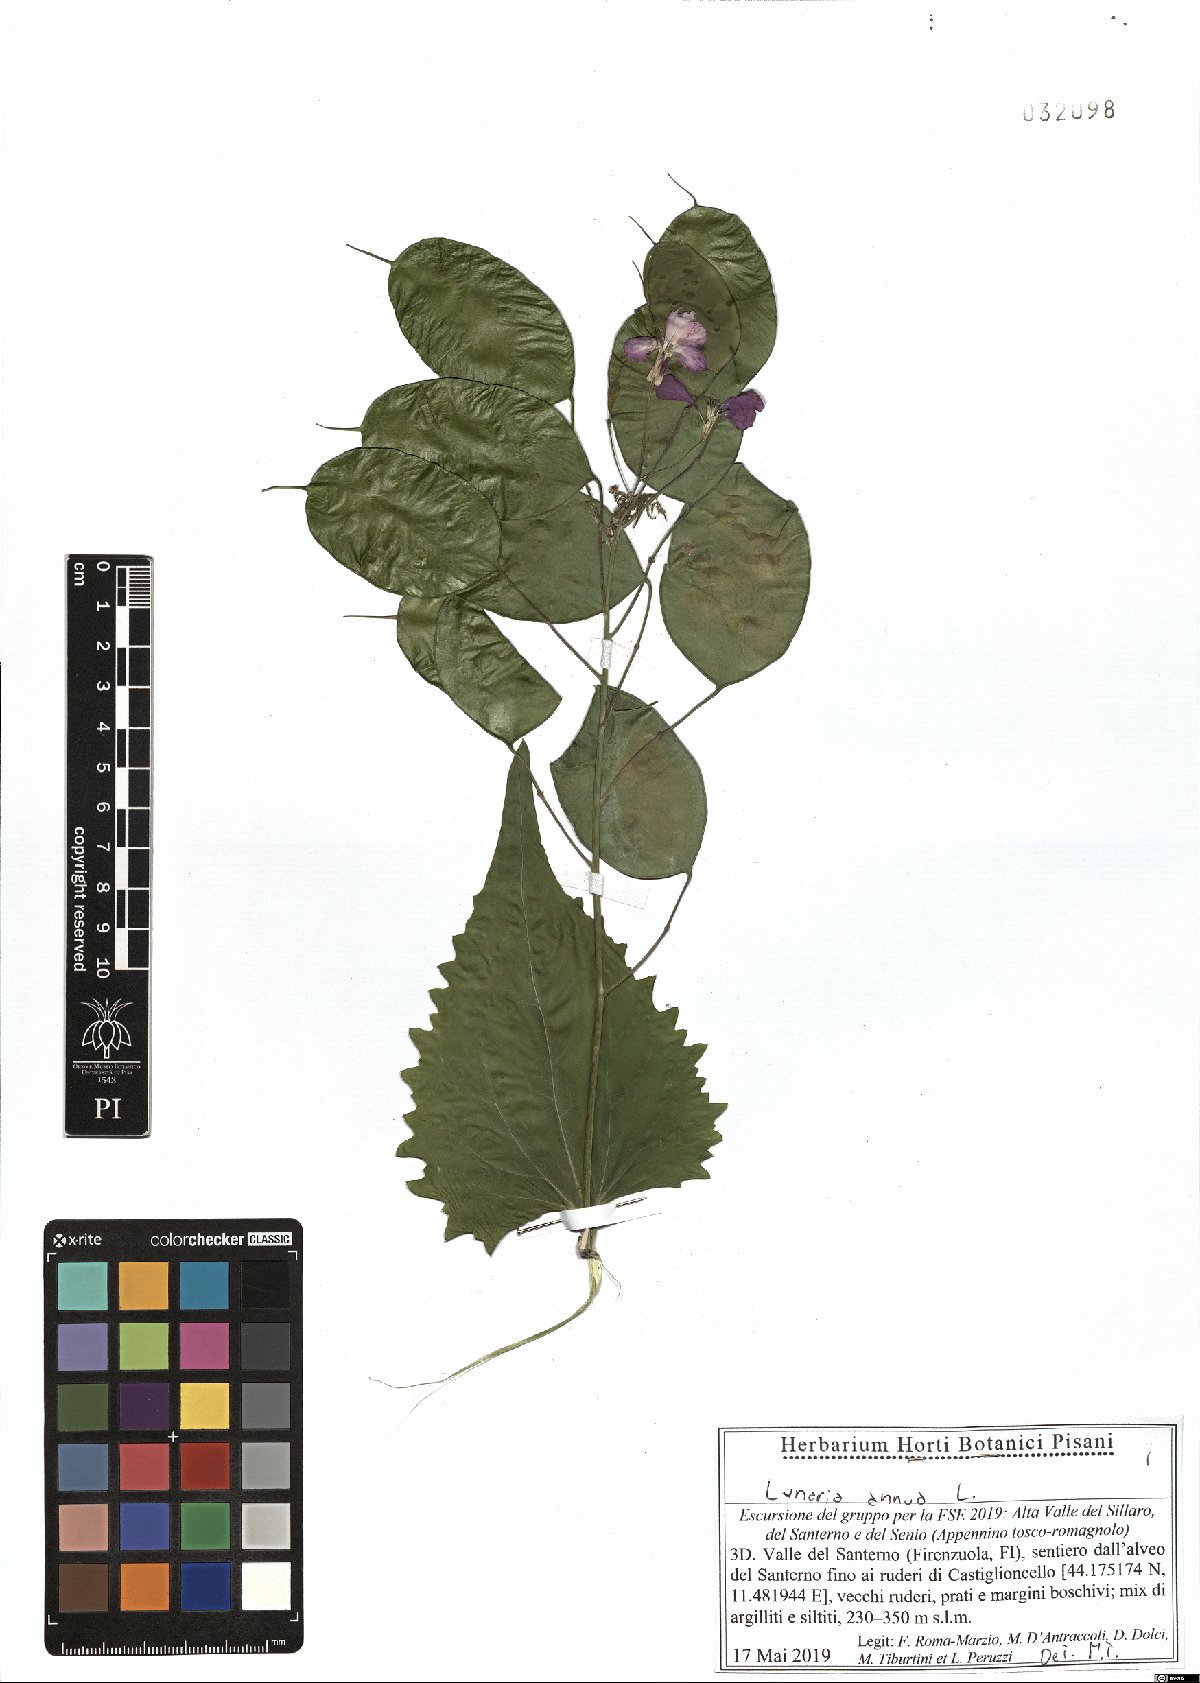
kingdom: Plantae
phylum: Tracheophyta
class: Magnoliopsida
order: Brassicales
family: Brassicaceae
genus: Lunaria
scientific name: Lunaria annua
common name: Honesty
